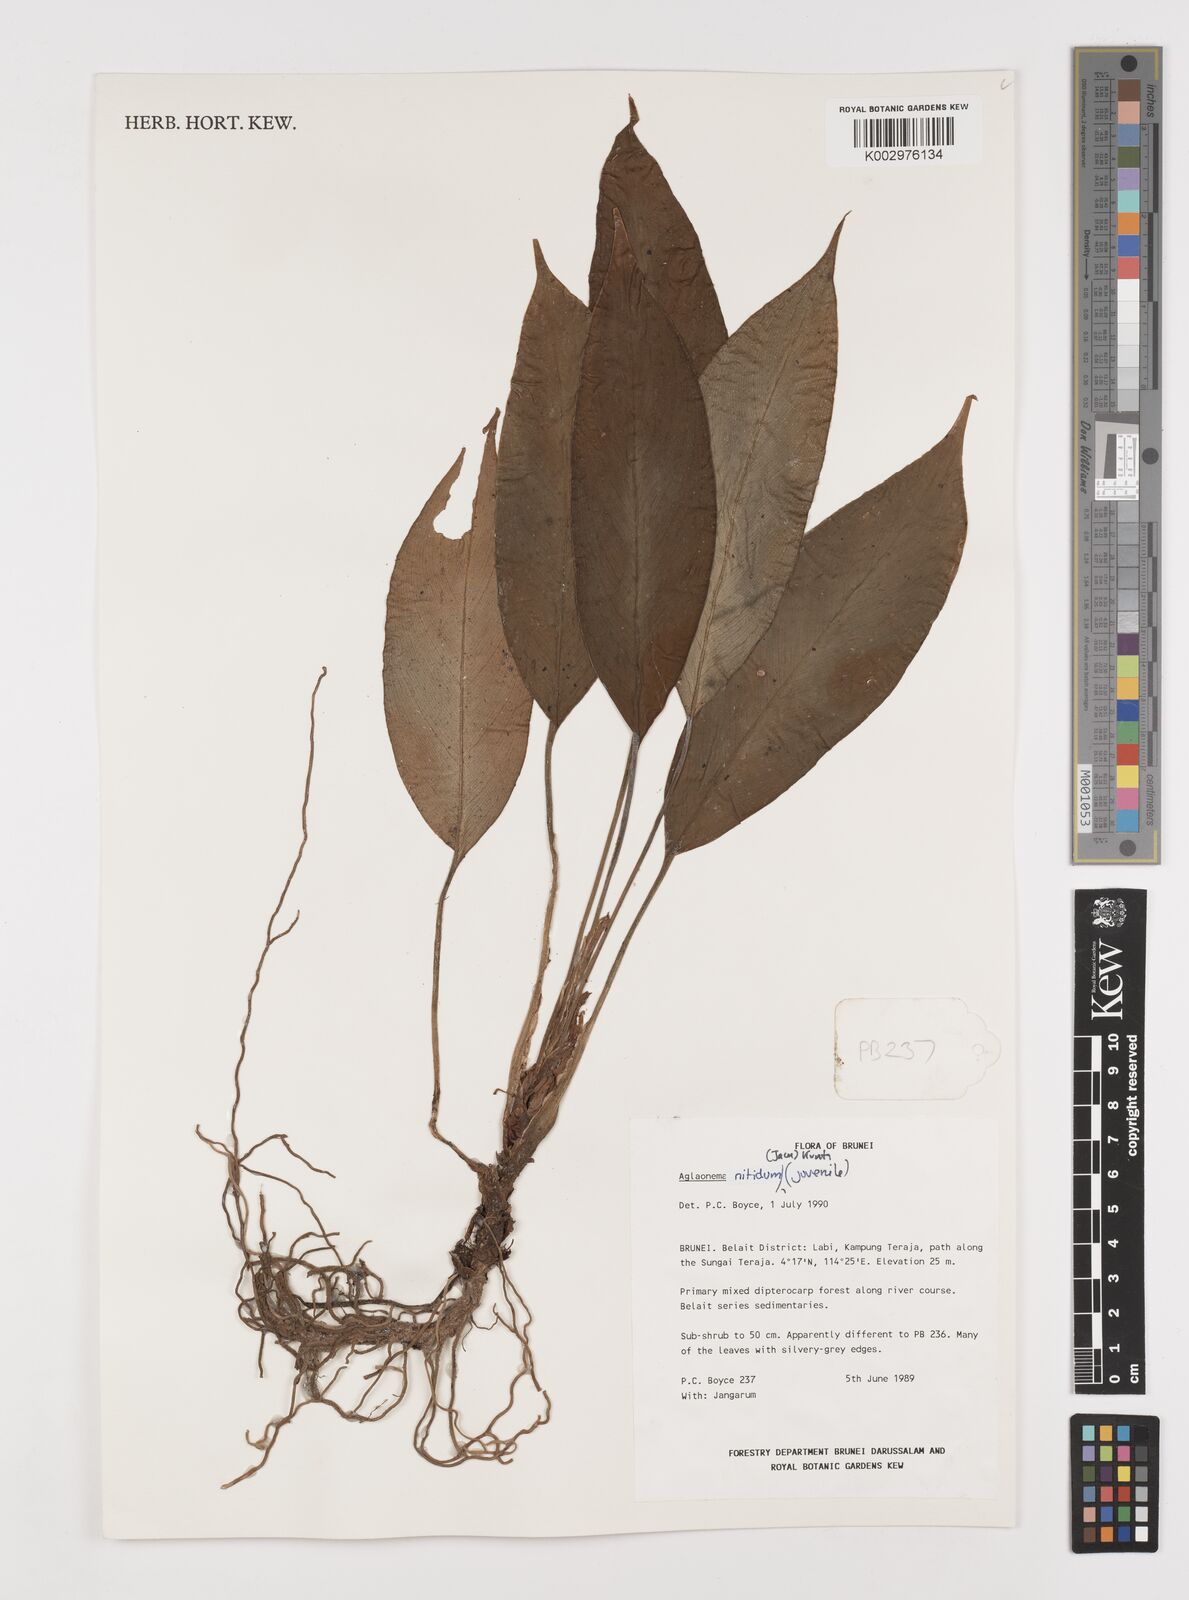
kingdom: Plantae
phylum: Tracheophyta
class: Liliopsida
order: Alismatales
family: Araceae
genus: Aglaonema
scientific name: Aglaonema nitidum
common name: Aglaonema aroid
